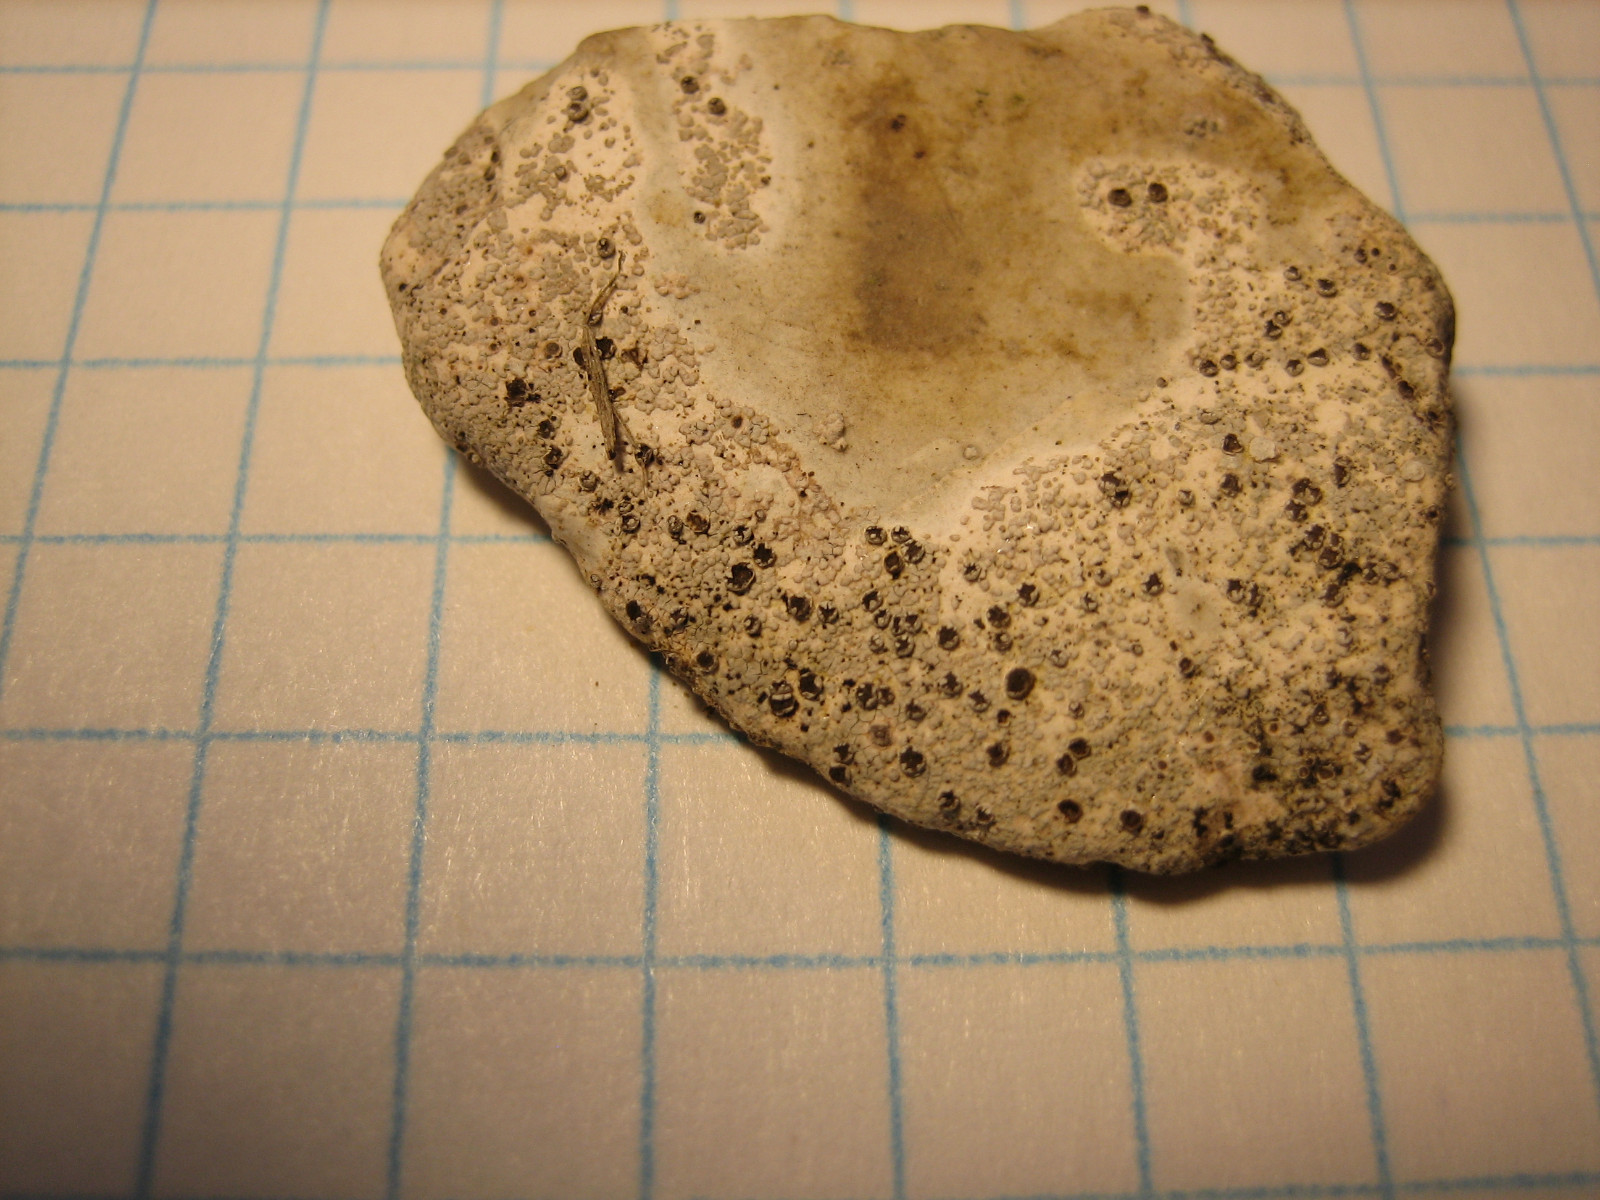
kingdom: Fungi
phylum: Ascomycota
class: Lecanoromycetes
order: Baeomycetales
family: Trapeliaceae
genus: Trapelia
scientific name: Trapelia coarctata
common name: hvidrandet brunskivelav
